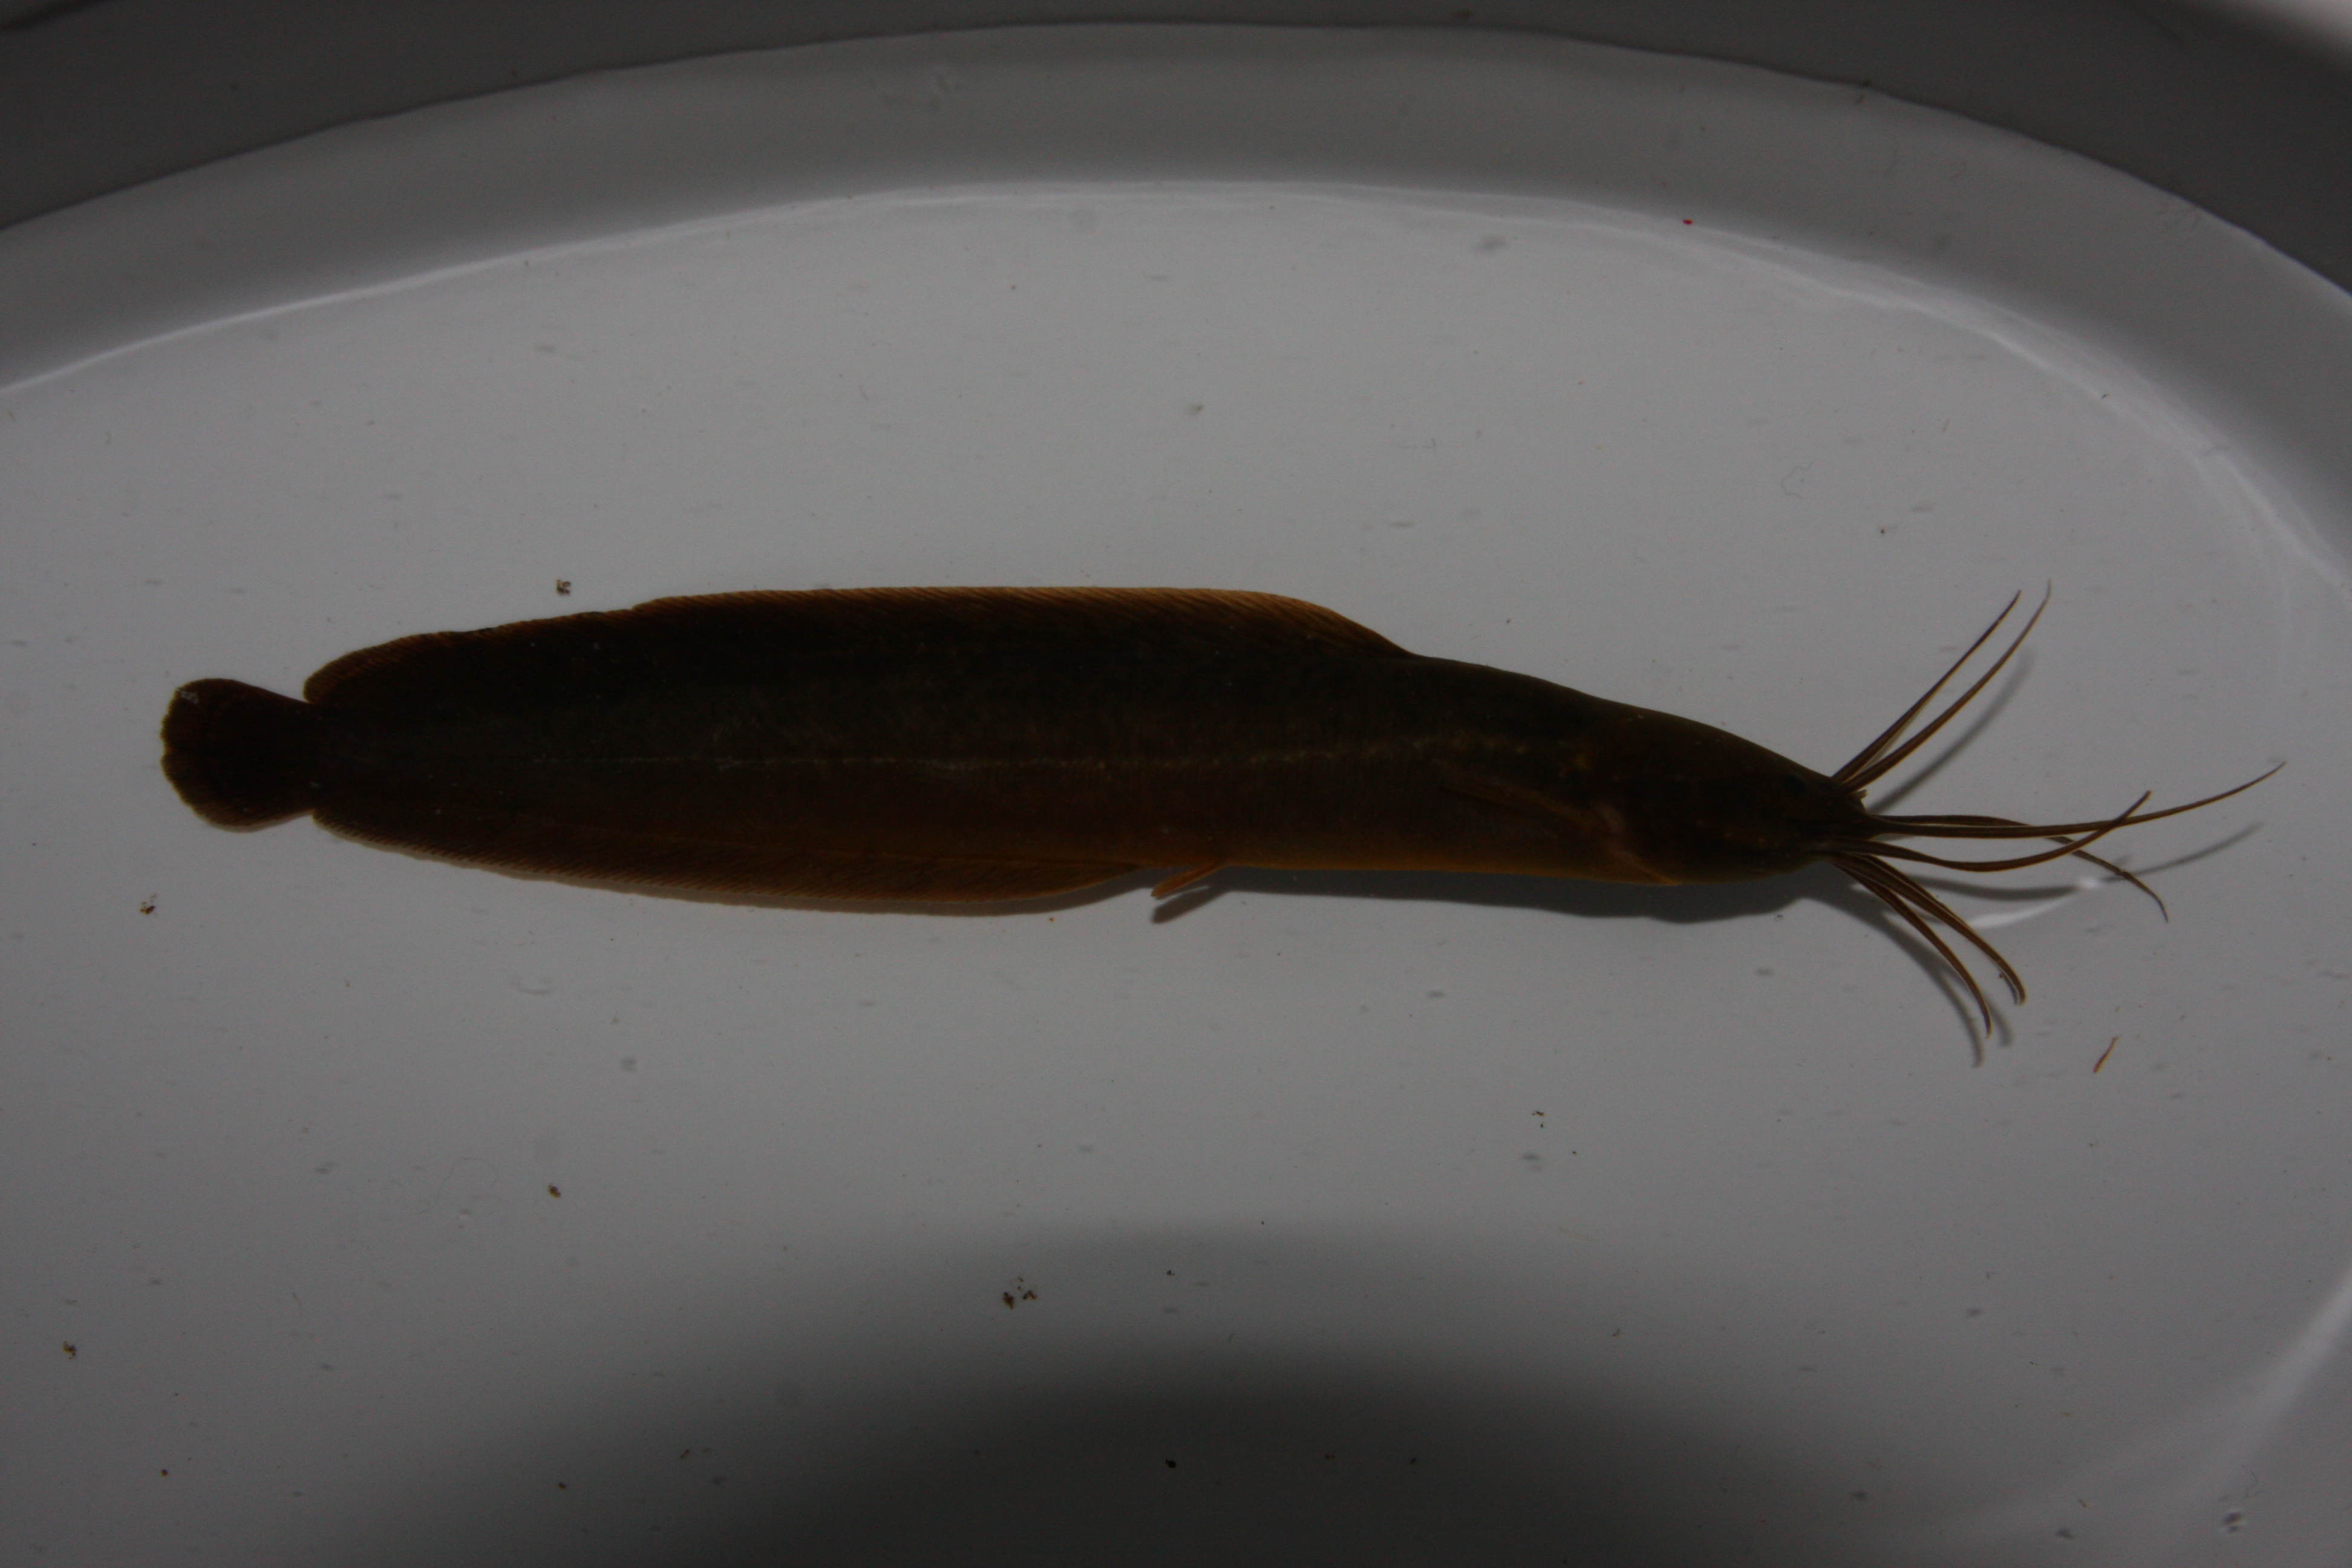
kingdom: Animalia
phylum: Chordata
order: Siluriformes
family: Clariidae
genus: Clarias
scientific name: Clarias theodorae
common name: Snake catfish
